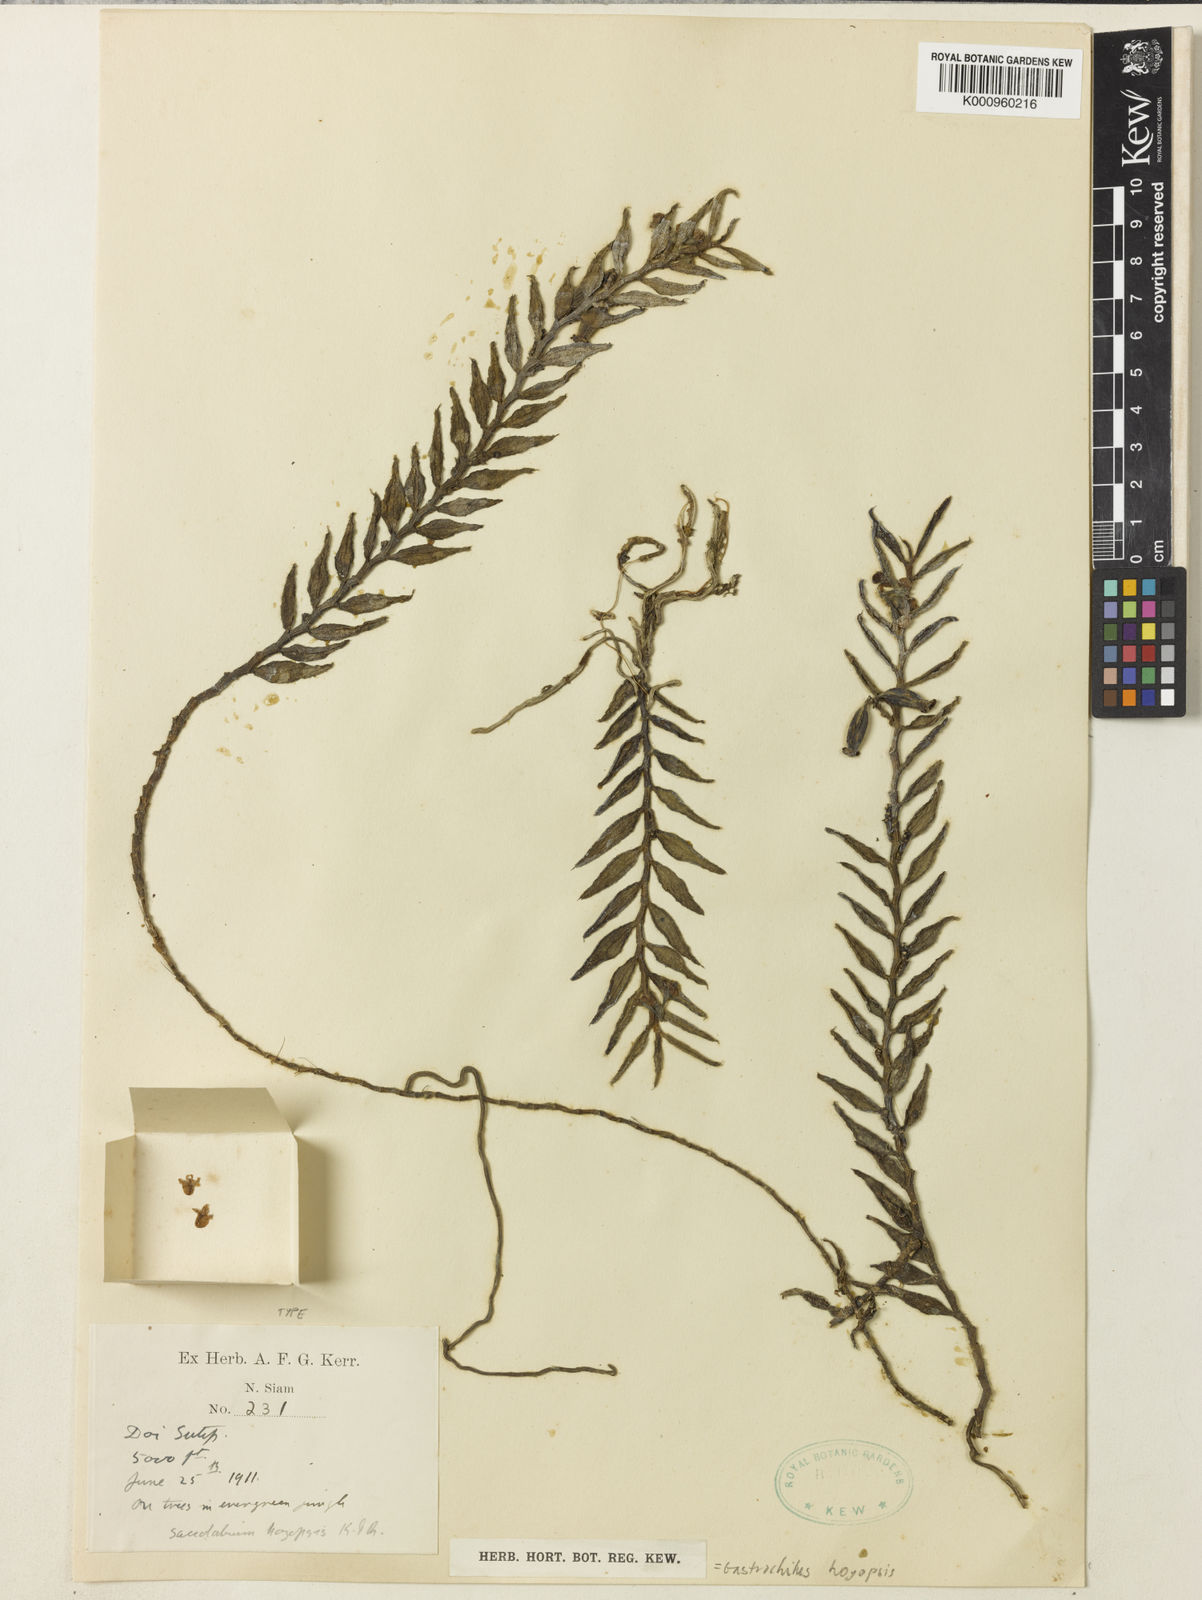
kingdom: Plantae
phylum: Tracheophyta
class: Liliopsida
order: Asparagales
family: Orchidaceae
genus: Gastrochilus
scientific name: Gastrochilus pseudodistichus
